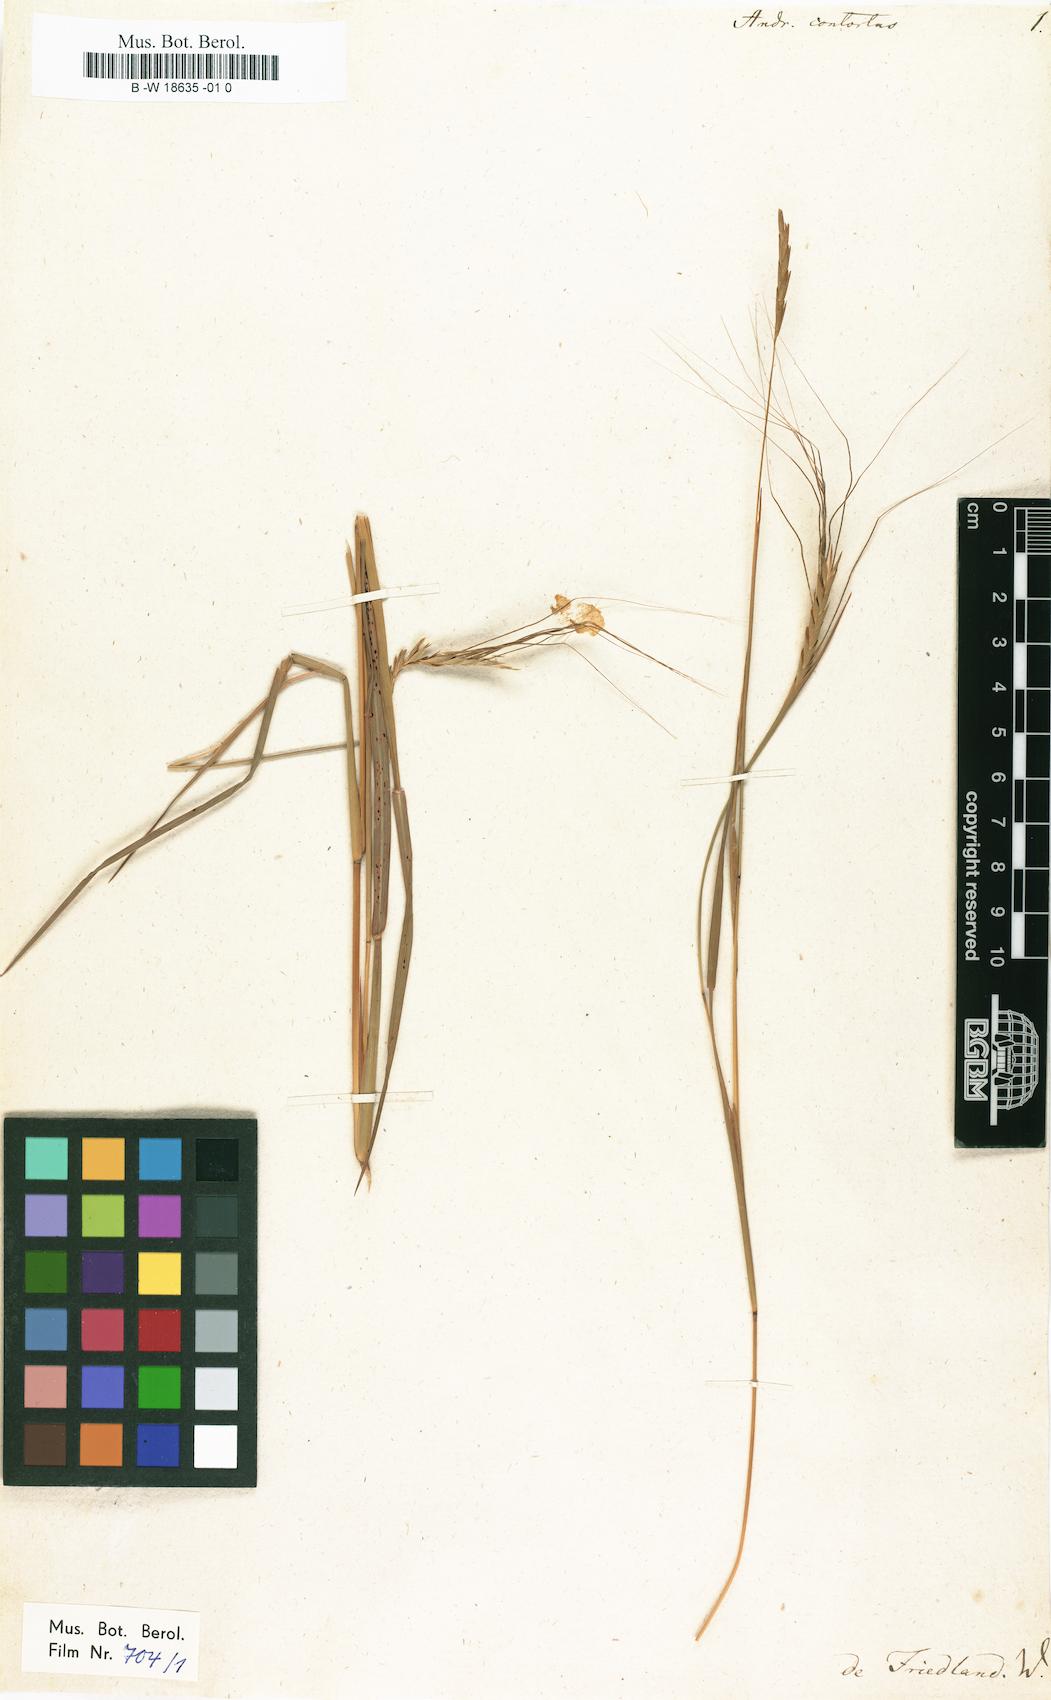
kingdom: Plantae
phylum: Tracheophyta
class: Liliopsida
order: Poales
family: Poaceae
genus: Heteropogon
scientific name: Heteropogon contortus
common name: Tanglehead
